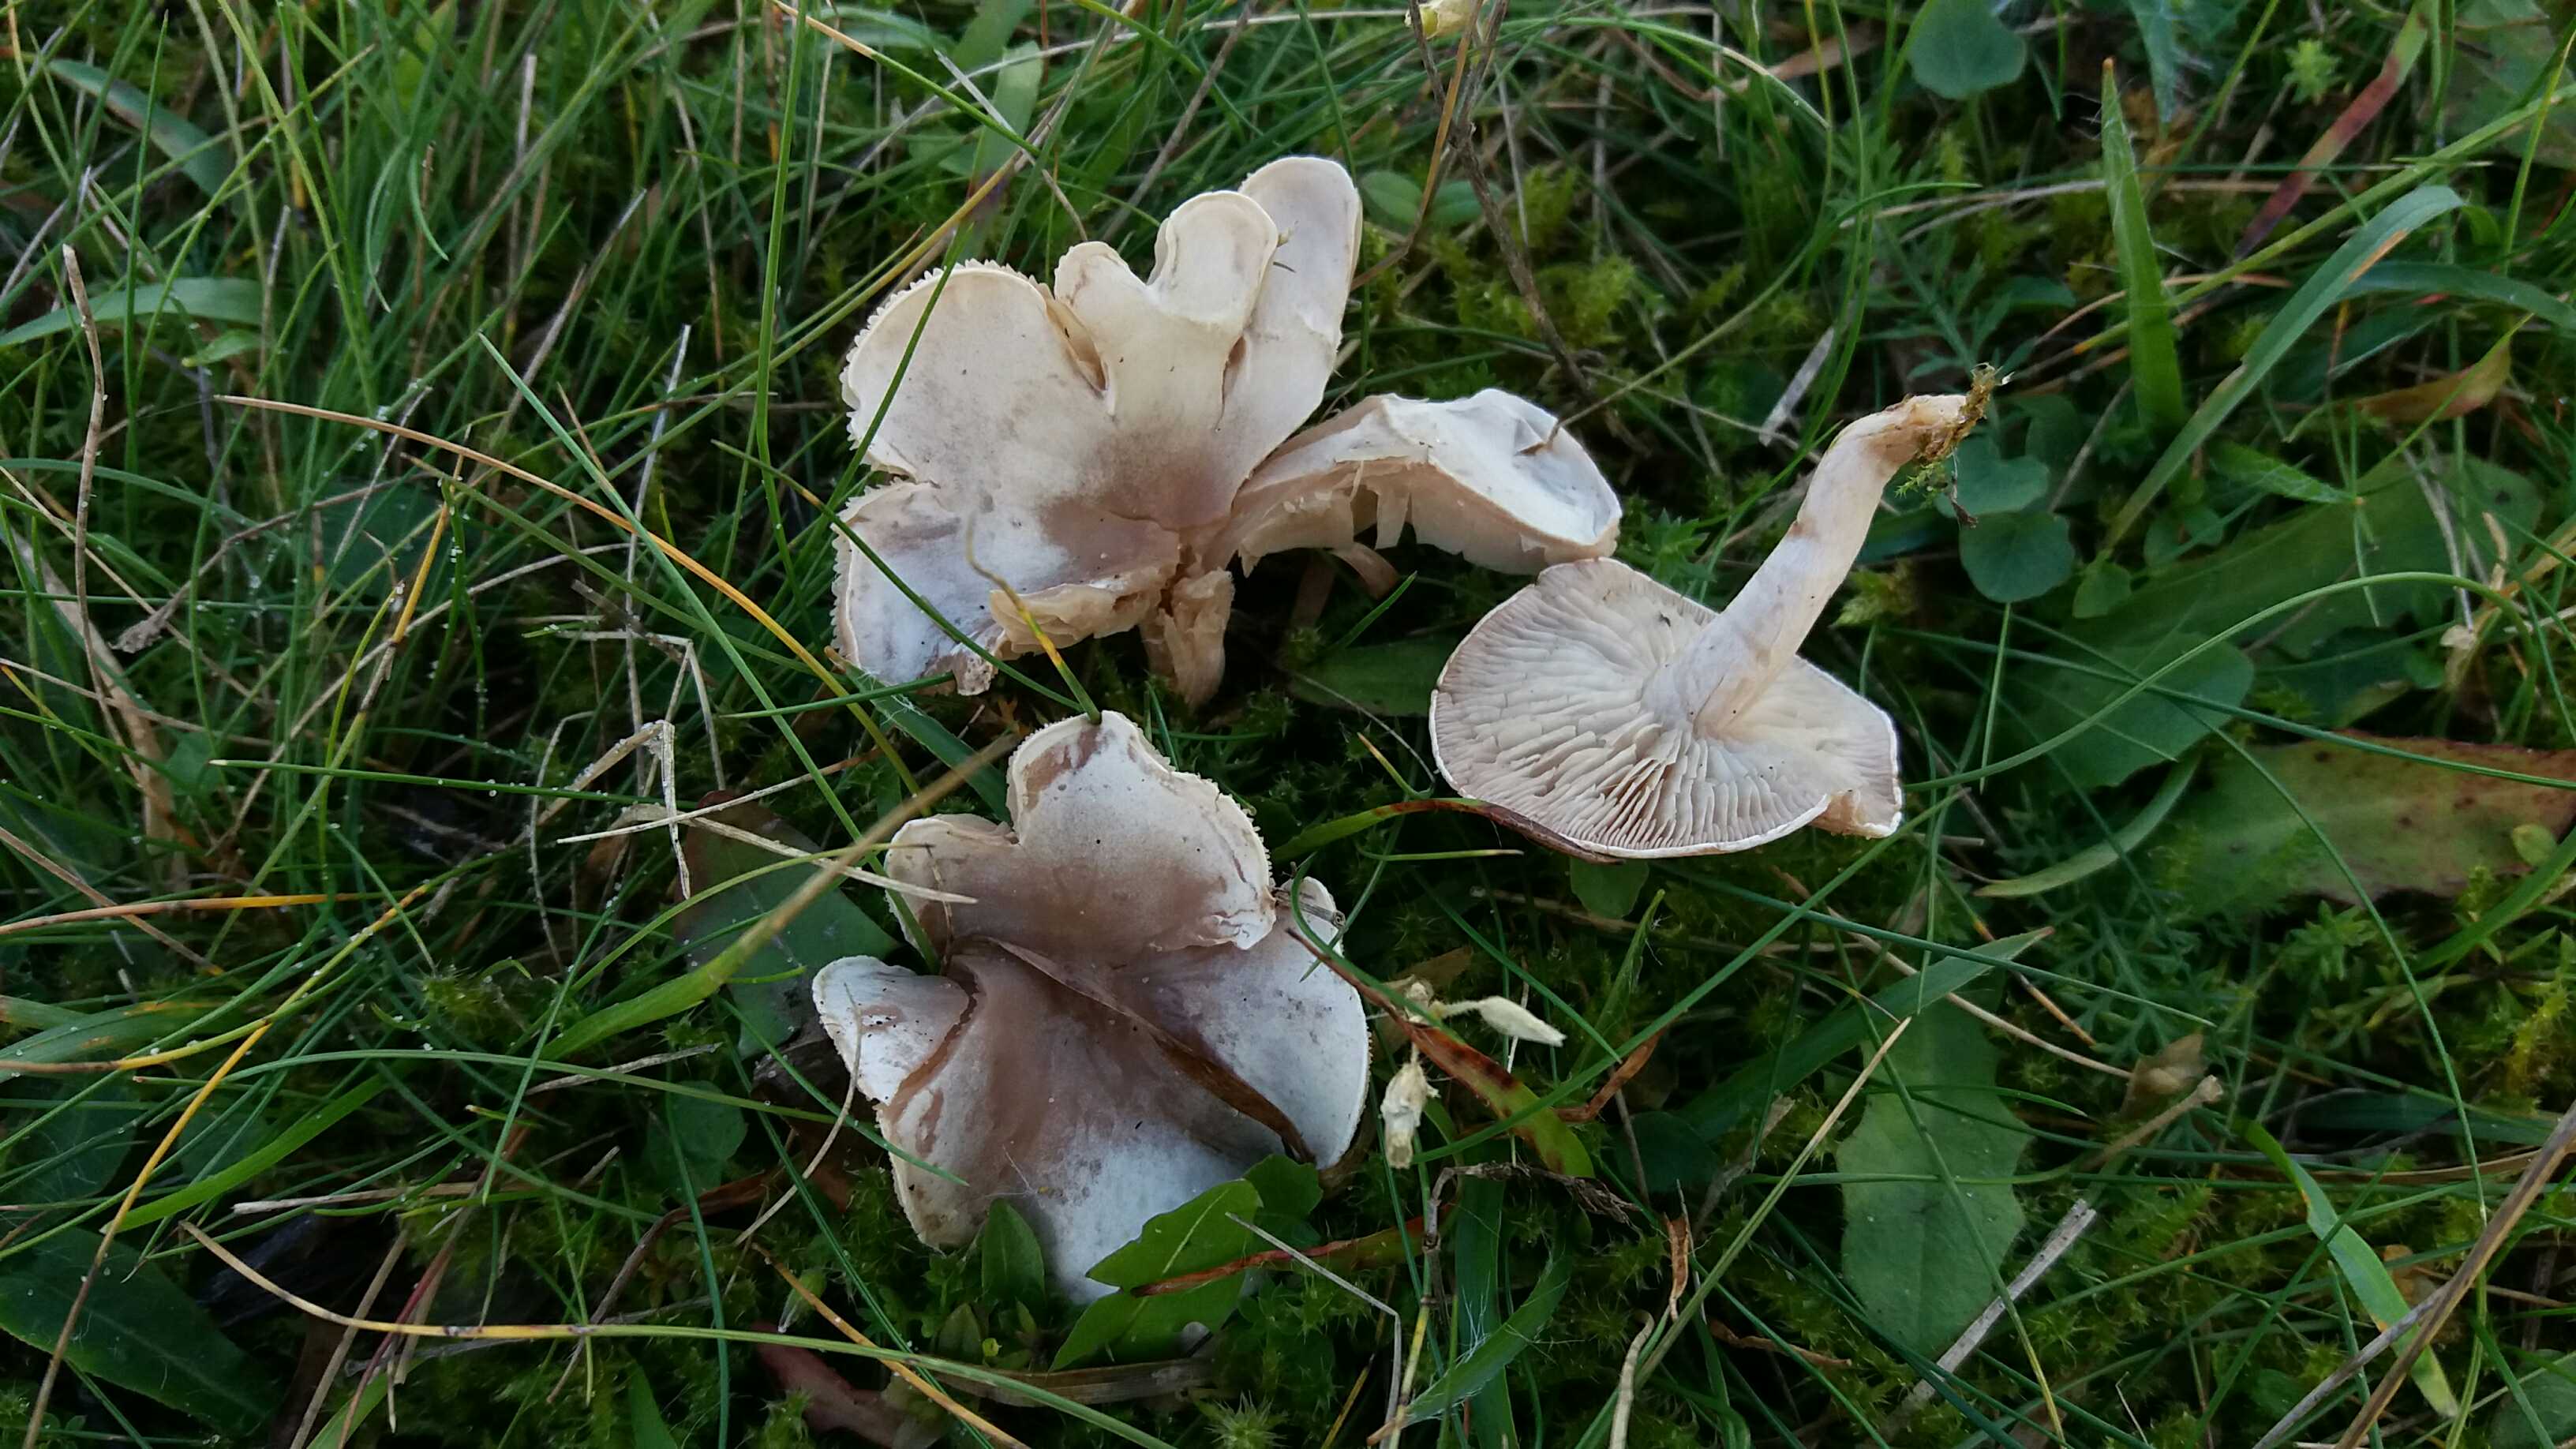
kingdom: Fungi
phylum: Basidiomycota
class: Agaricomycetes
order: Agaricales
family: Tricholomataceae
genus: Clitocybe
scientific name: Clitocybe rivulosa
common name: eng-tragthat
